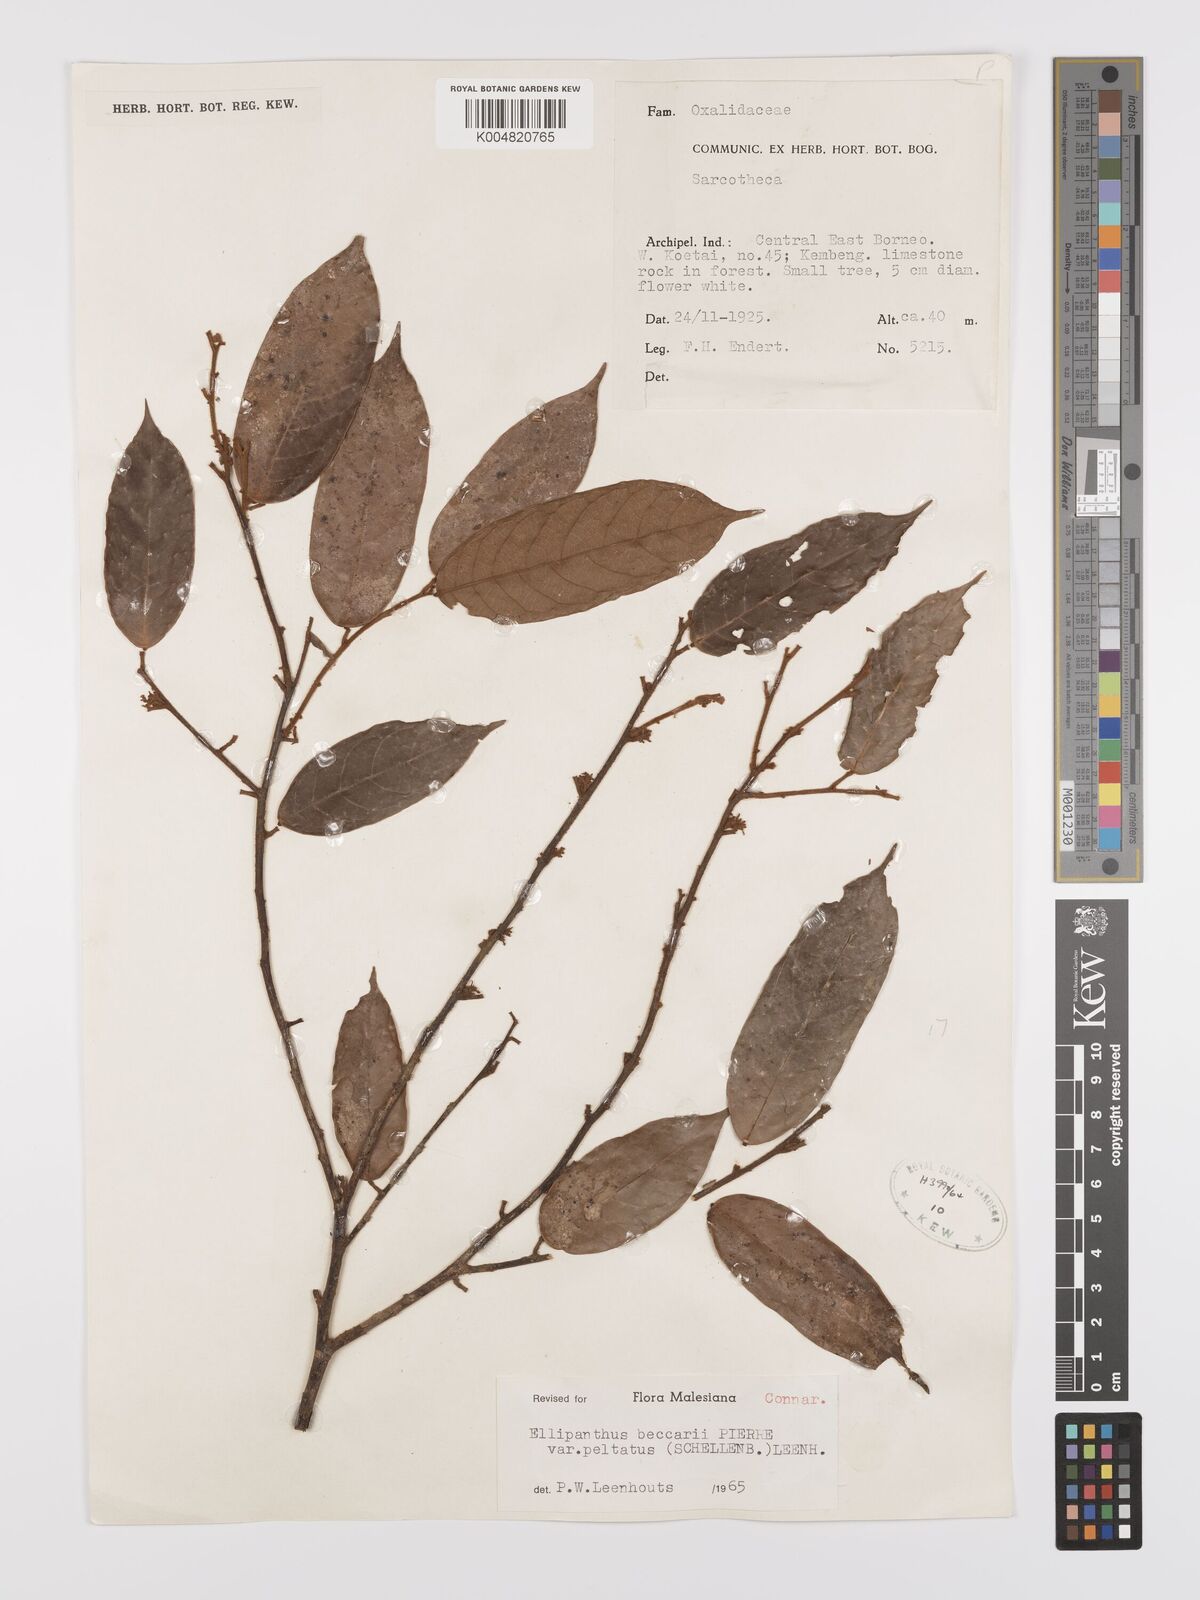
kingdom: Plantae
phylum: Tracheophyta
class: Magnoliopsida
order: Oxalidales
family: Connaraceae
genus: Ellipanthus
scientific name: Ellipanthus beccarii
